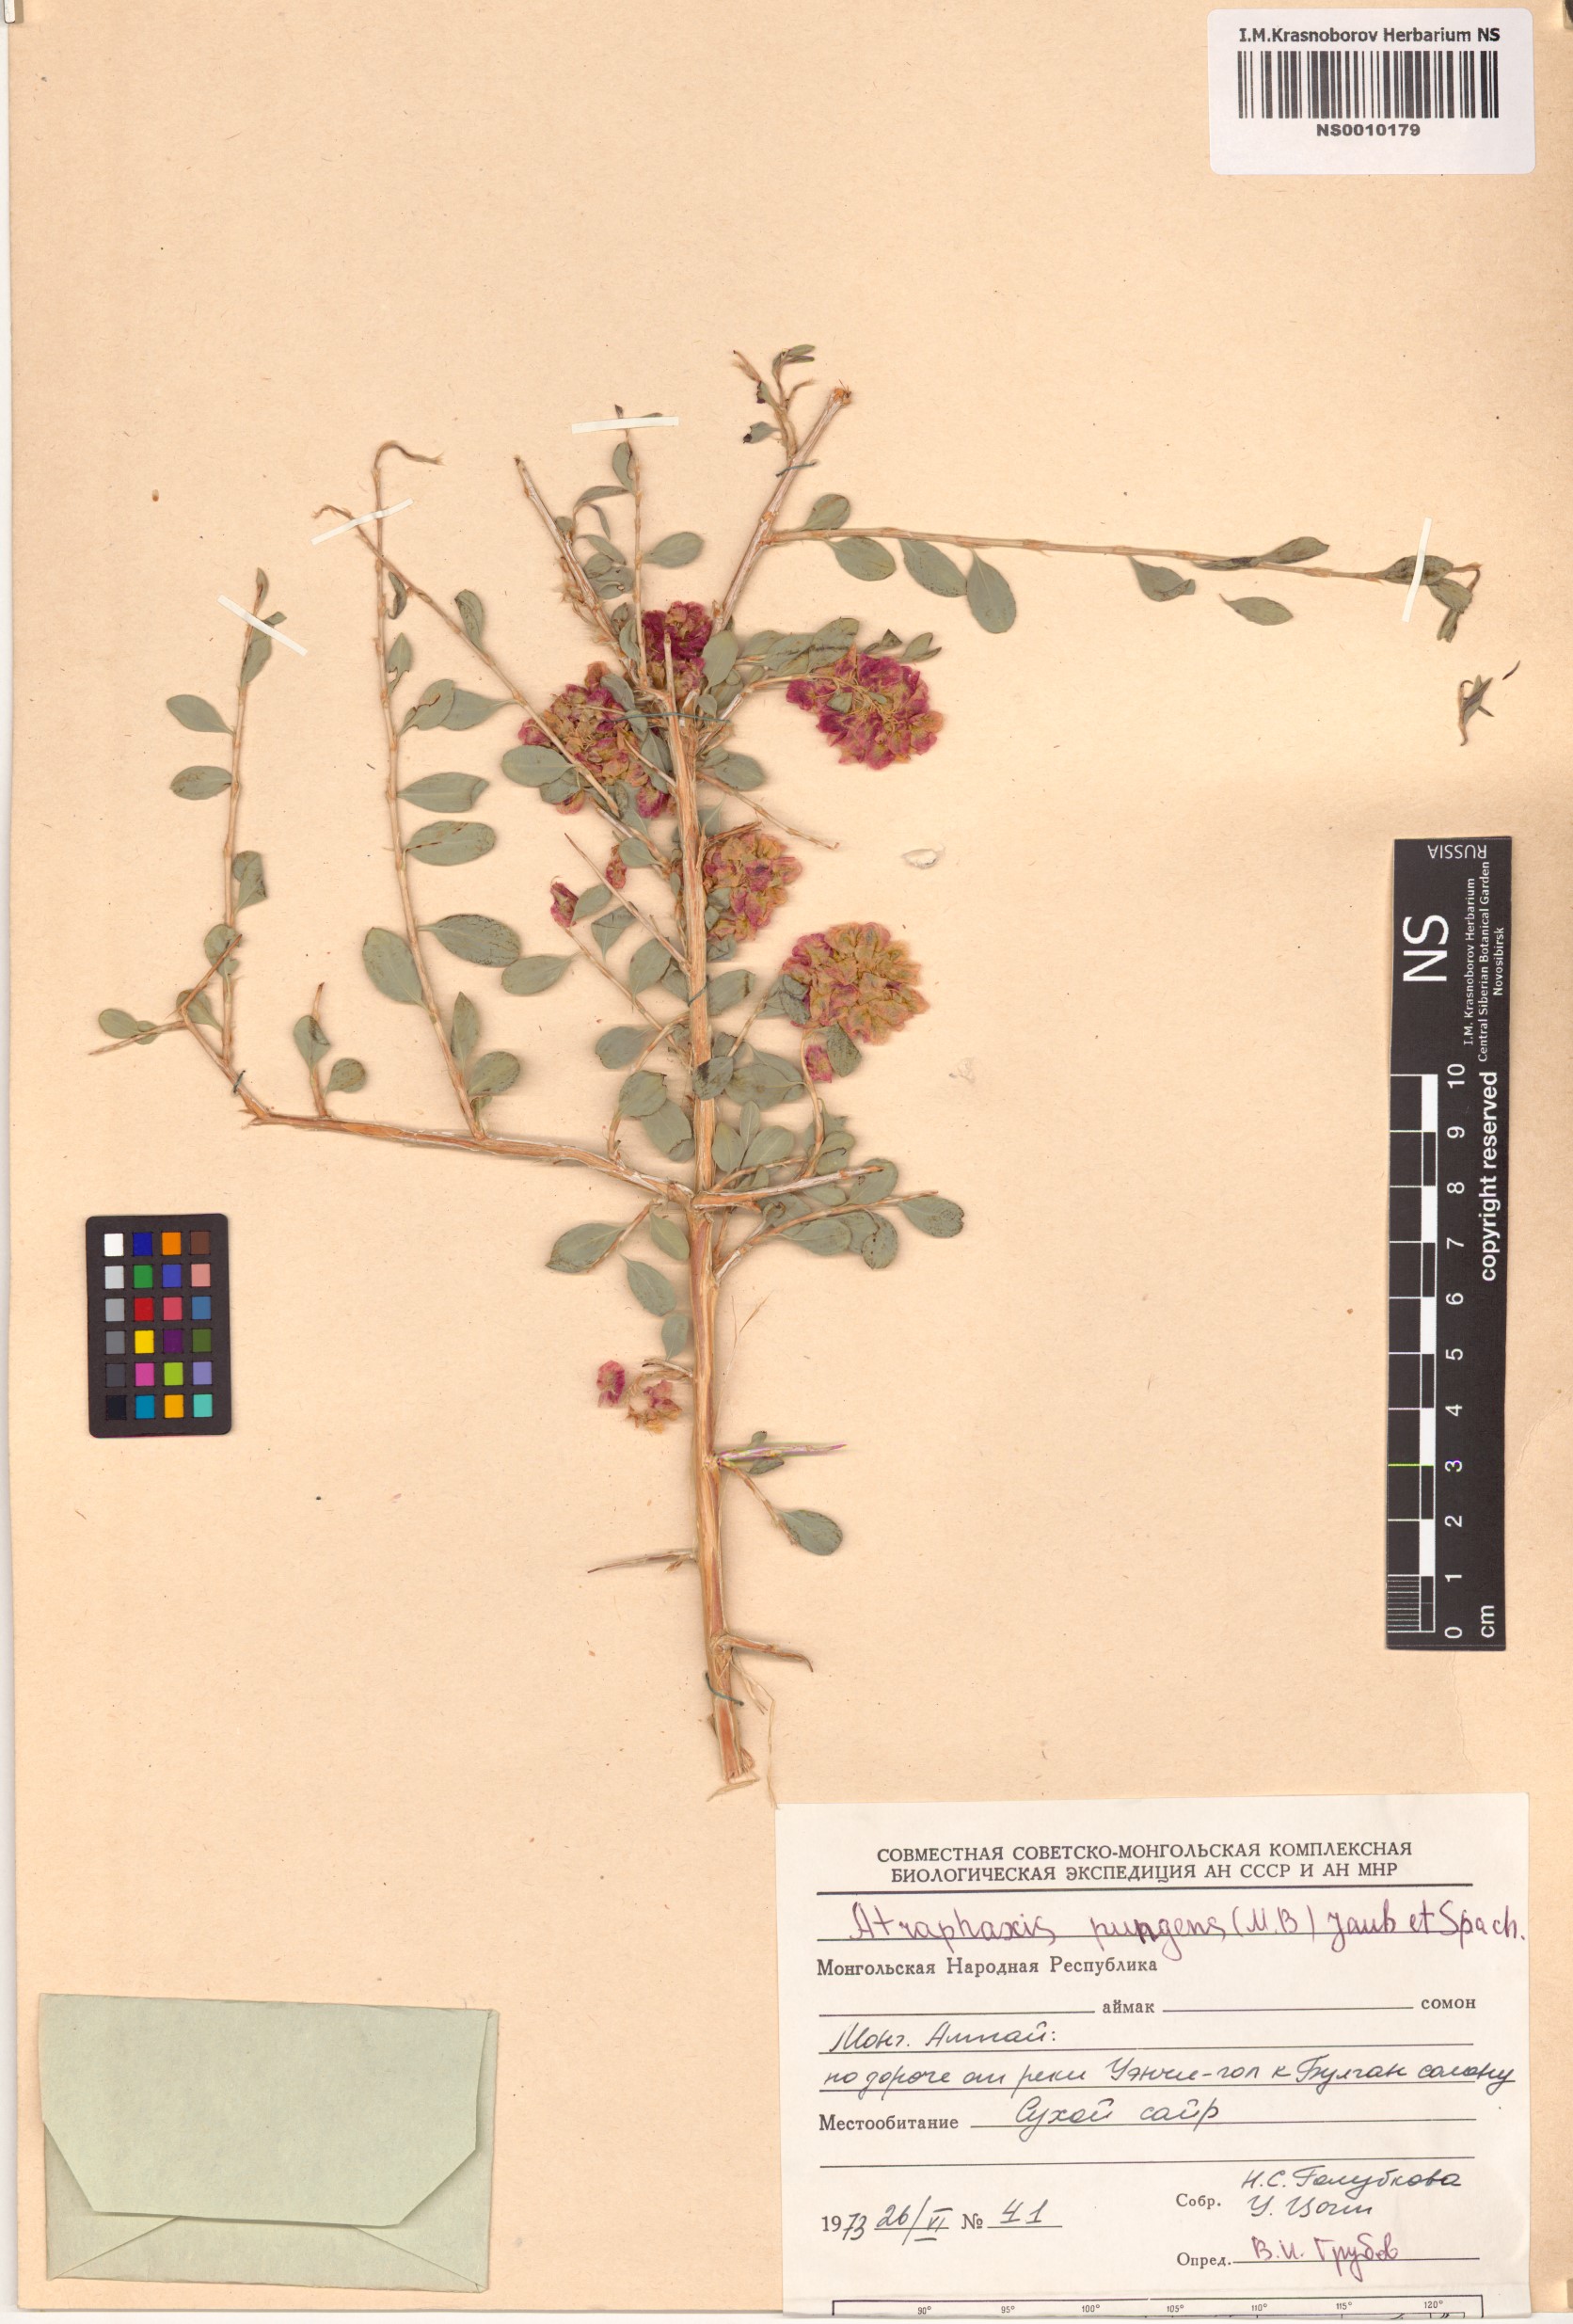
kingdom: Plantae
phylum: Tracheophyta
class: Magnoliopsida
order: Caryophyllales
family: Polygonaceae
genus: Atraphaxis
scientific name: Atraphaxis pungens
